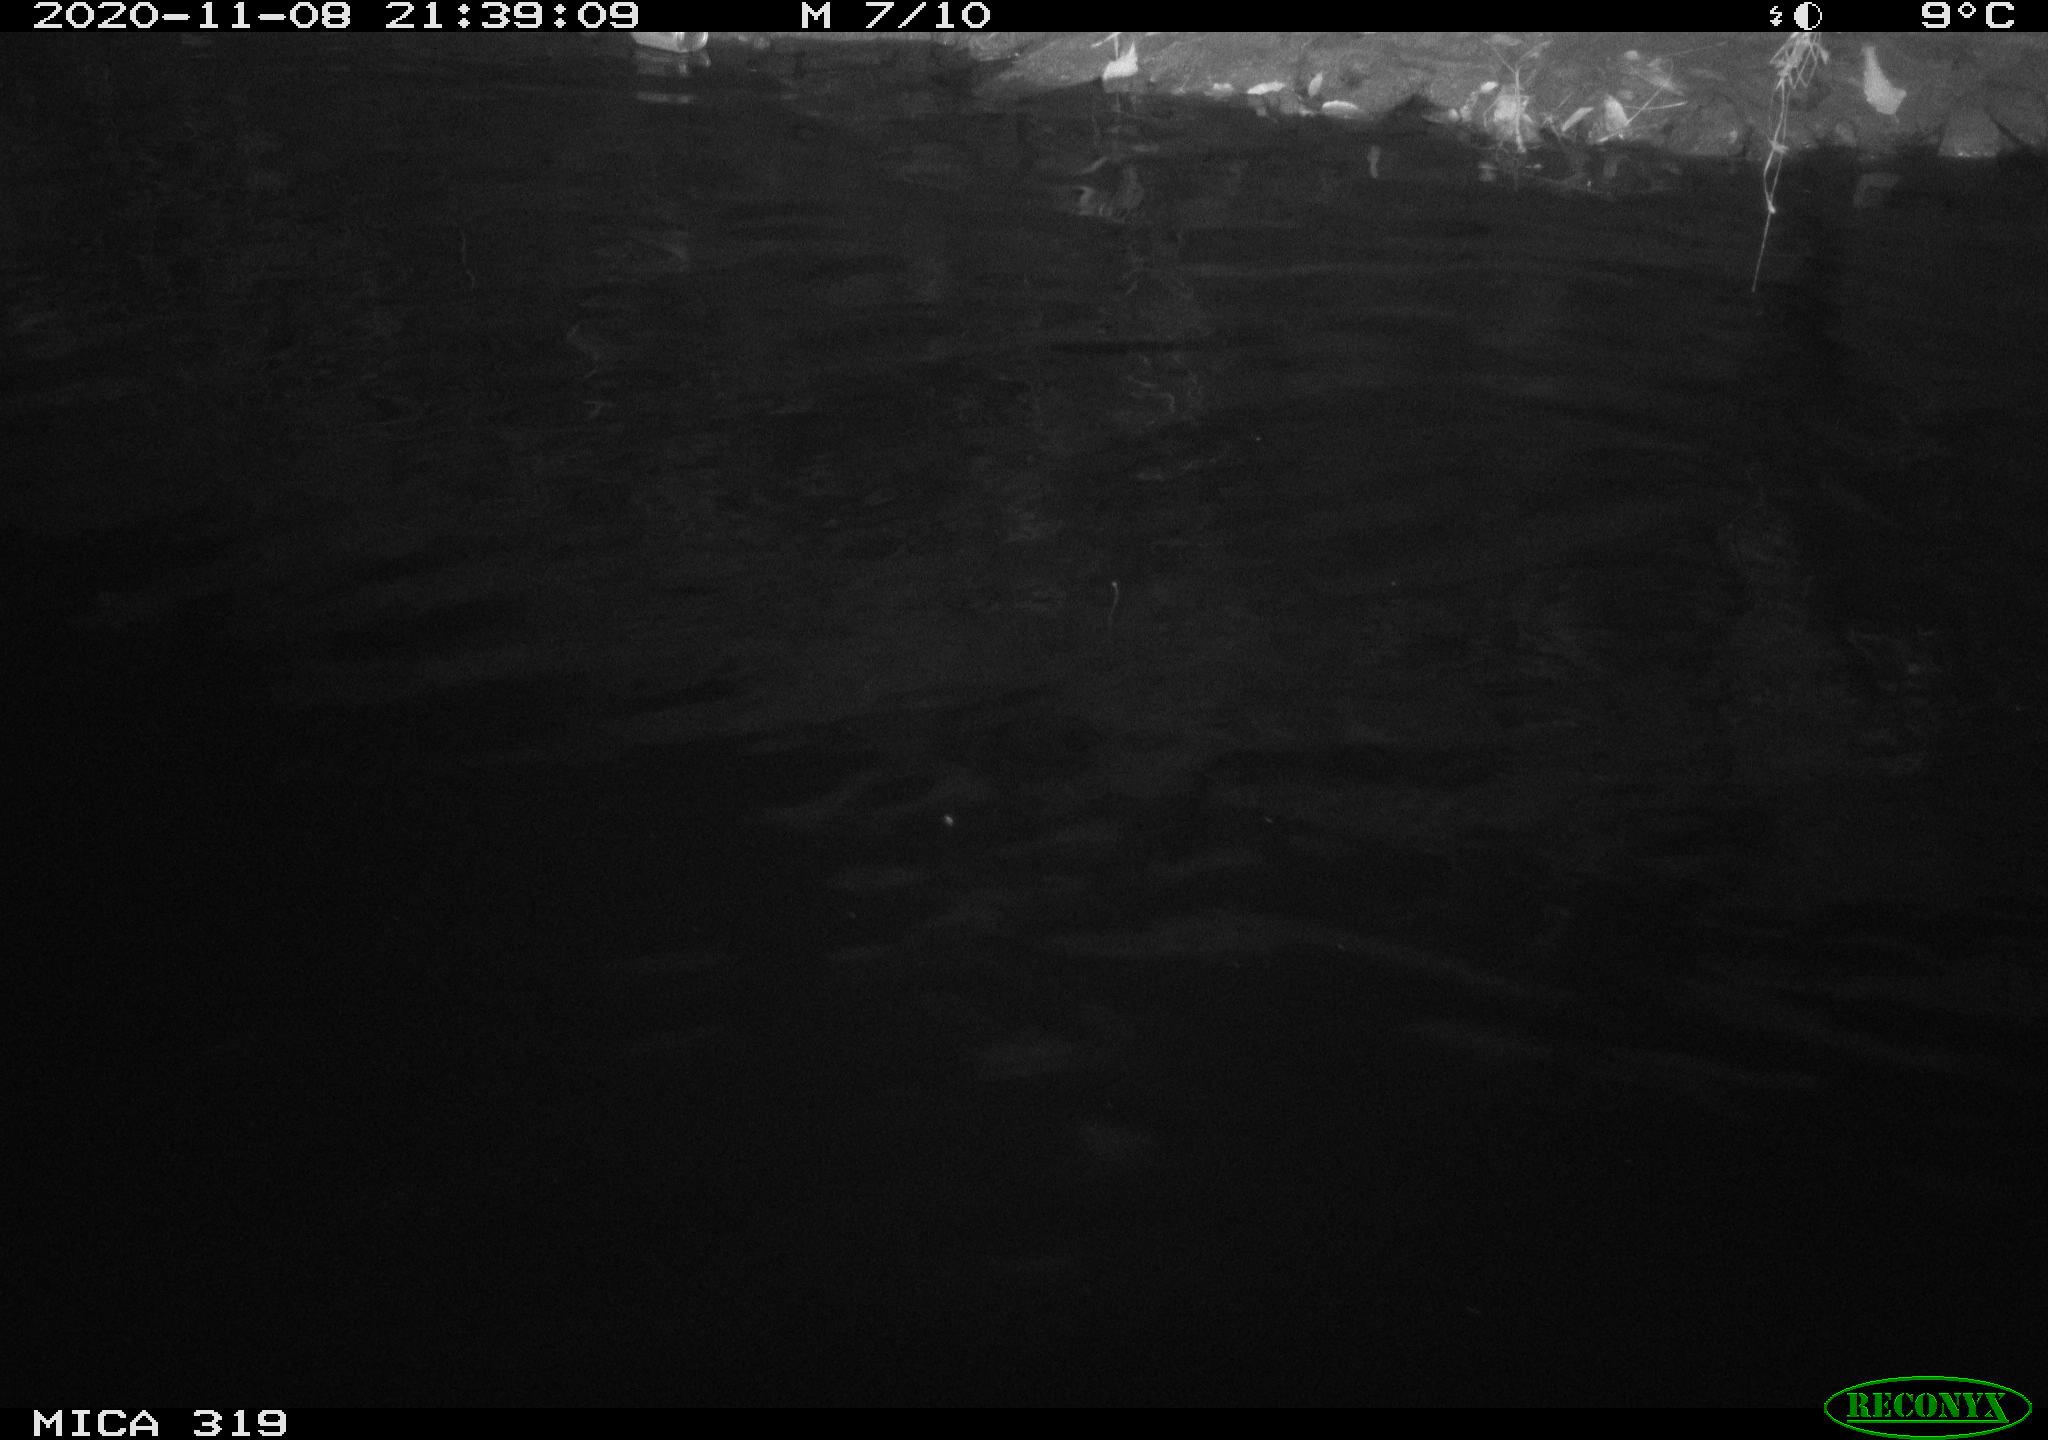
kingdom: Animalia
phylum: Chordata
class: Aves
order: Anseriformes
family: Anatidae
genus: Anas
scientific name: Anas platyrhynchos
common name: Mallard
